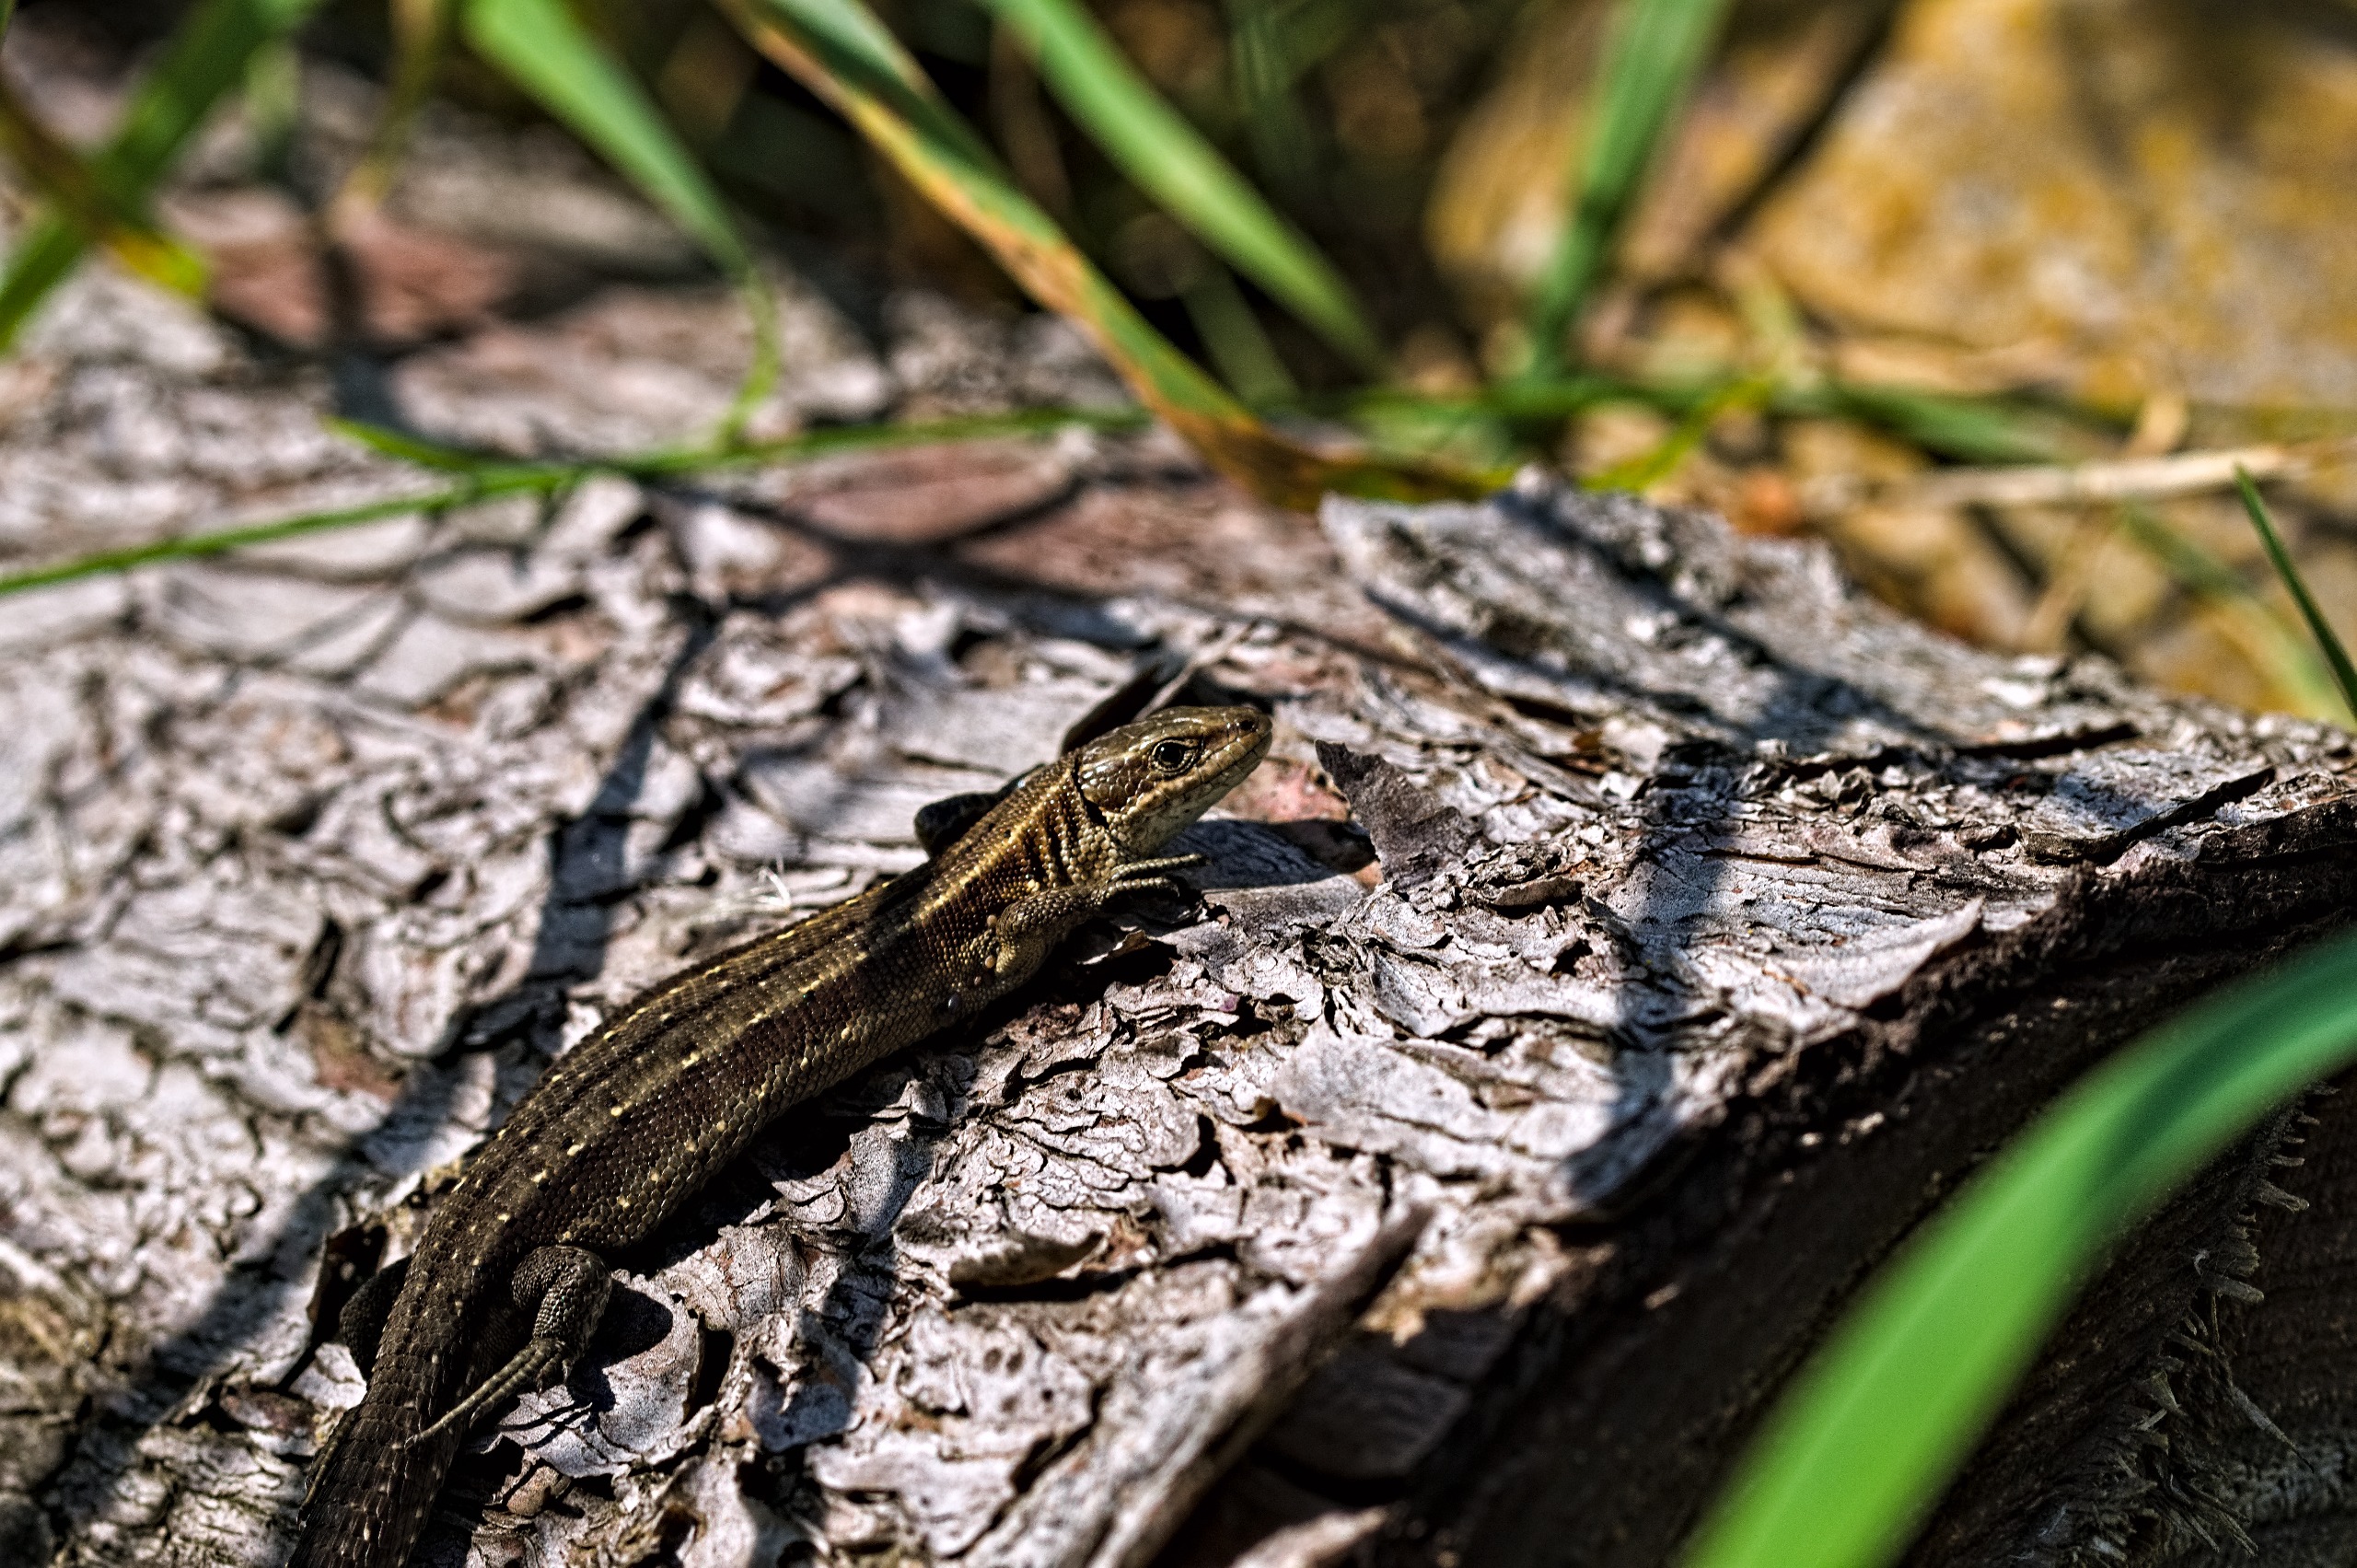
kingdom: Animalia
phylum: Chordata
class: Squamata
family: Lacertidae
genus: Zootoca
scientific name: Zootoca vivipara
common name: Skovfirben
